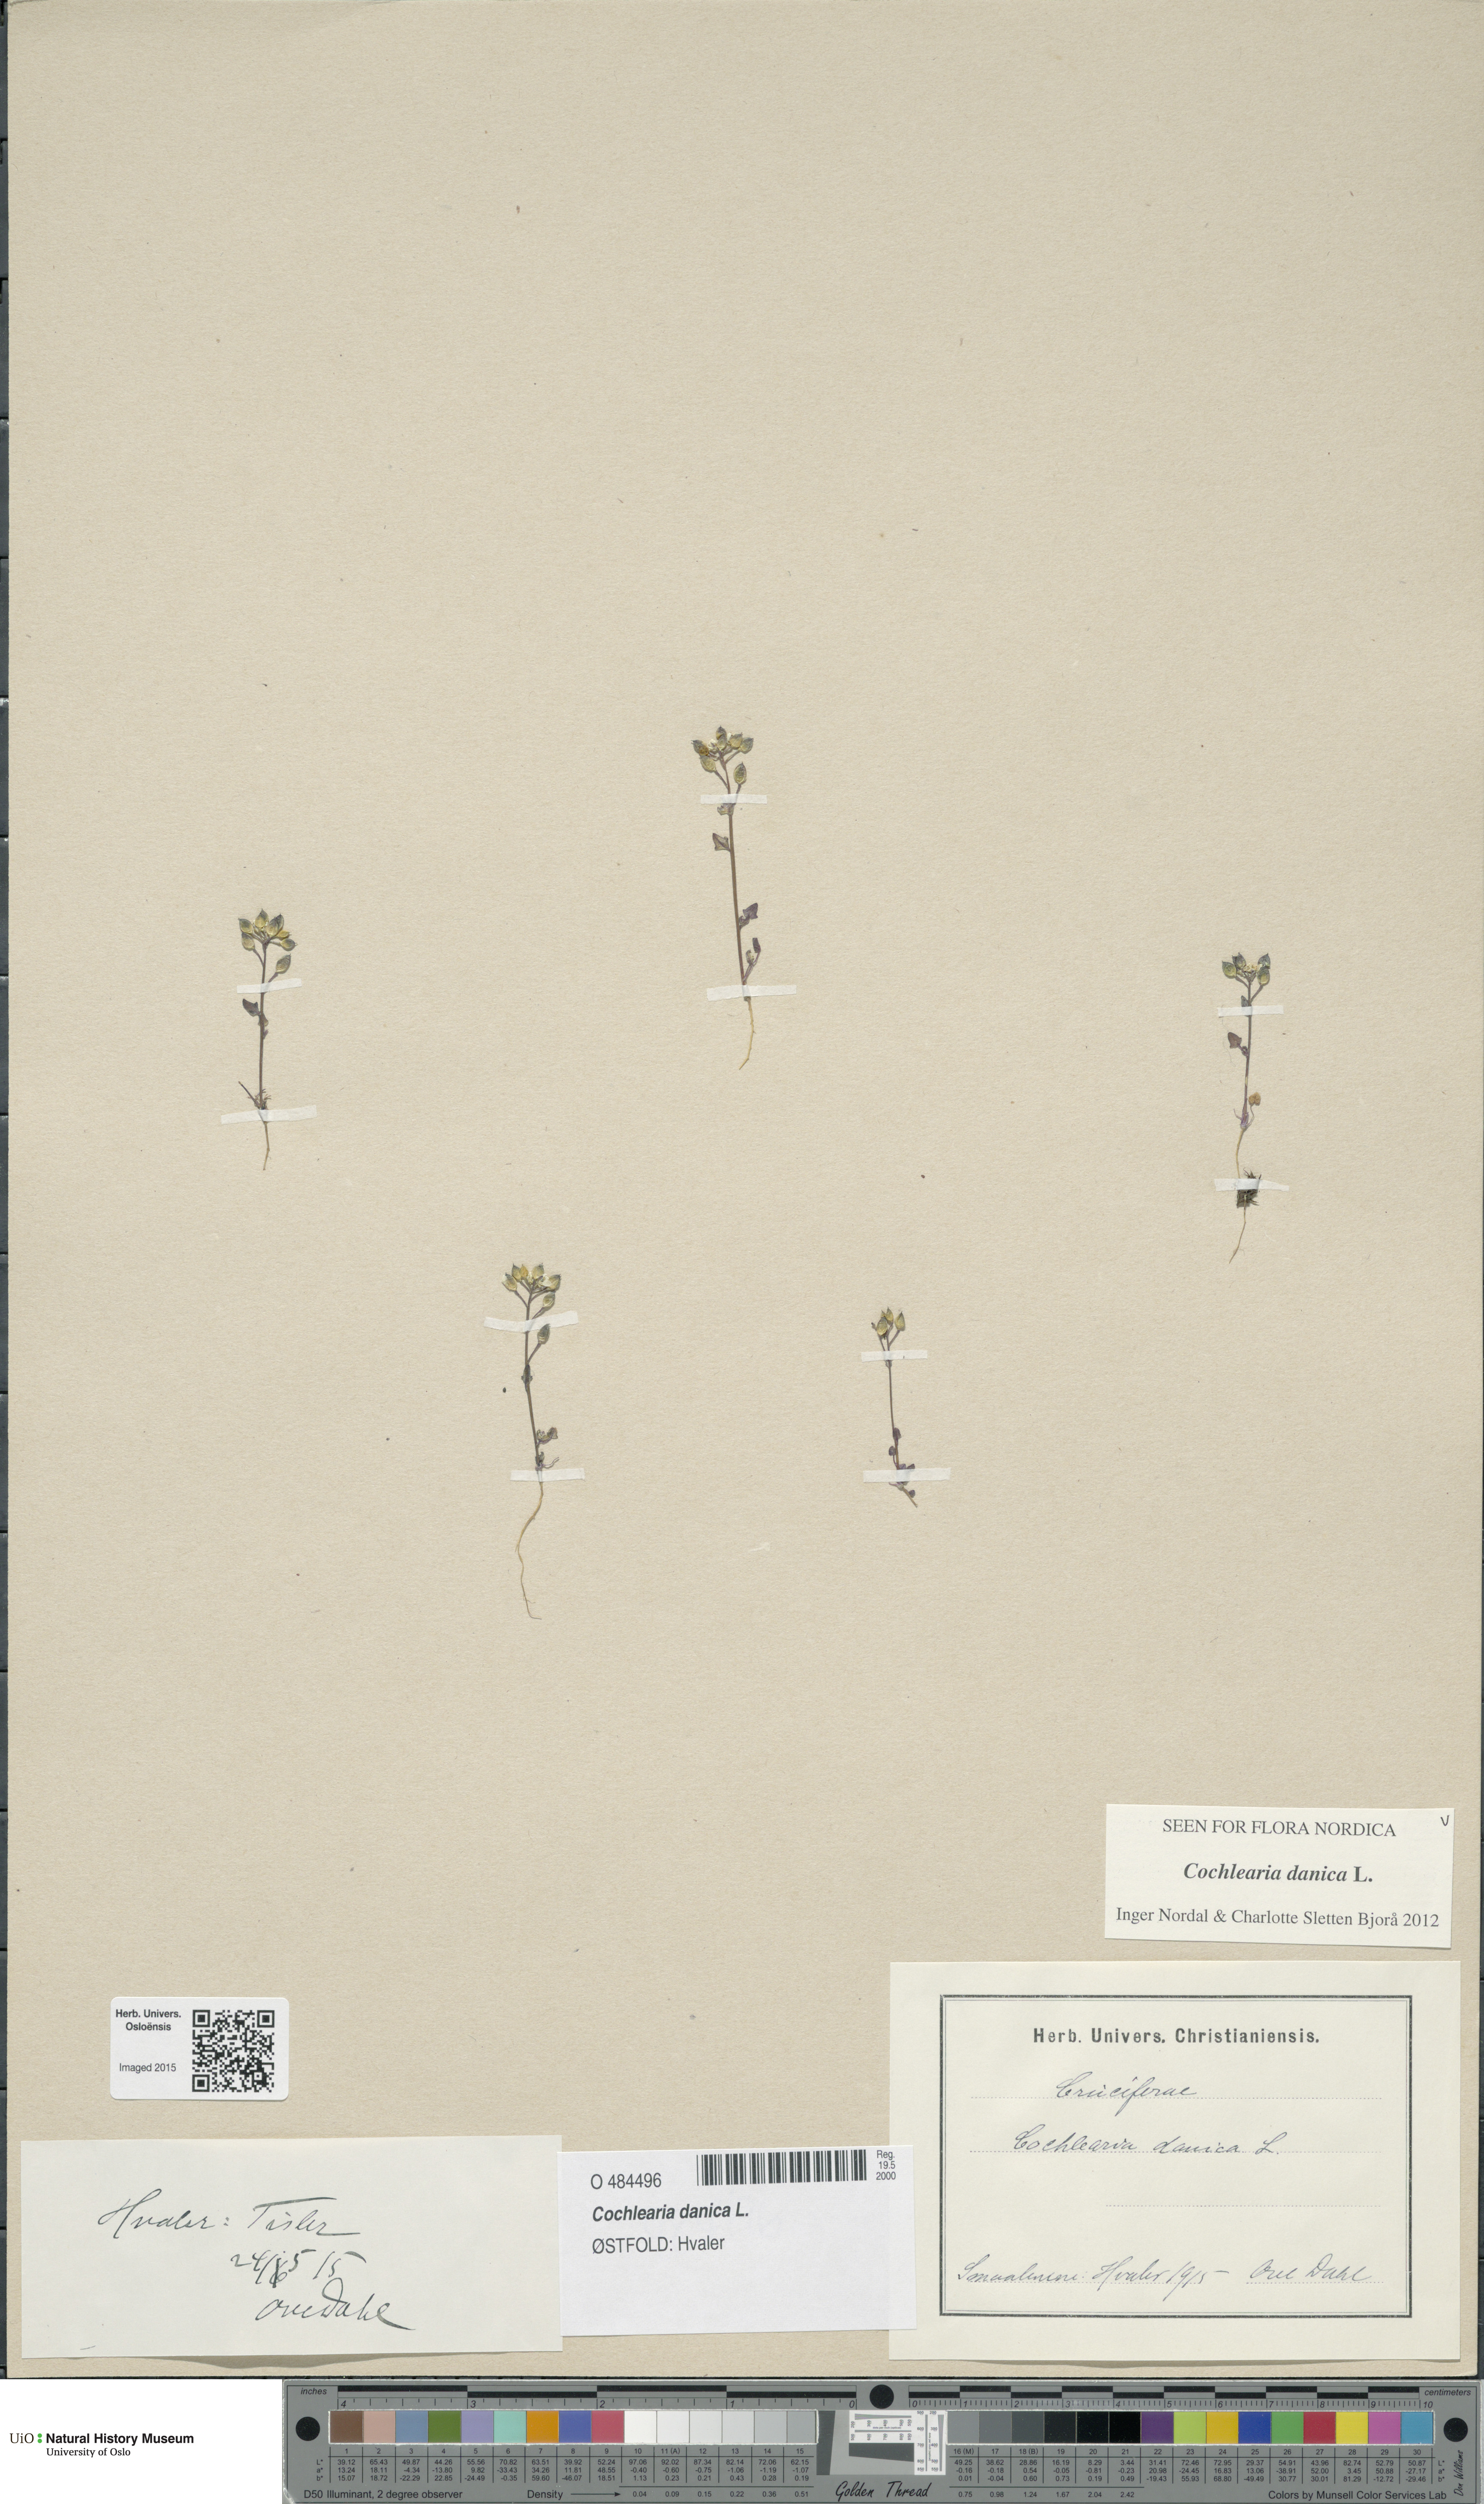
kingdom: Plantae
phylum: Tracheophyta
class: Magnoliopsida
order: Brassicales
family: Brassicaceae
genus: Cochlearia
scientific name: Cochlearia danica
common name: Early scurvygrass
